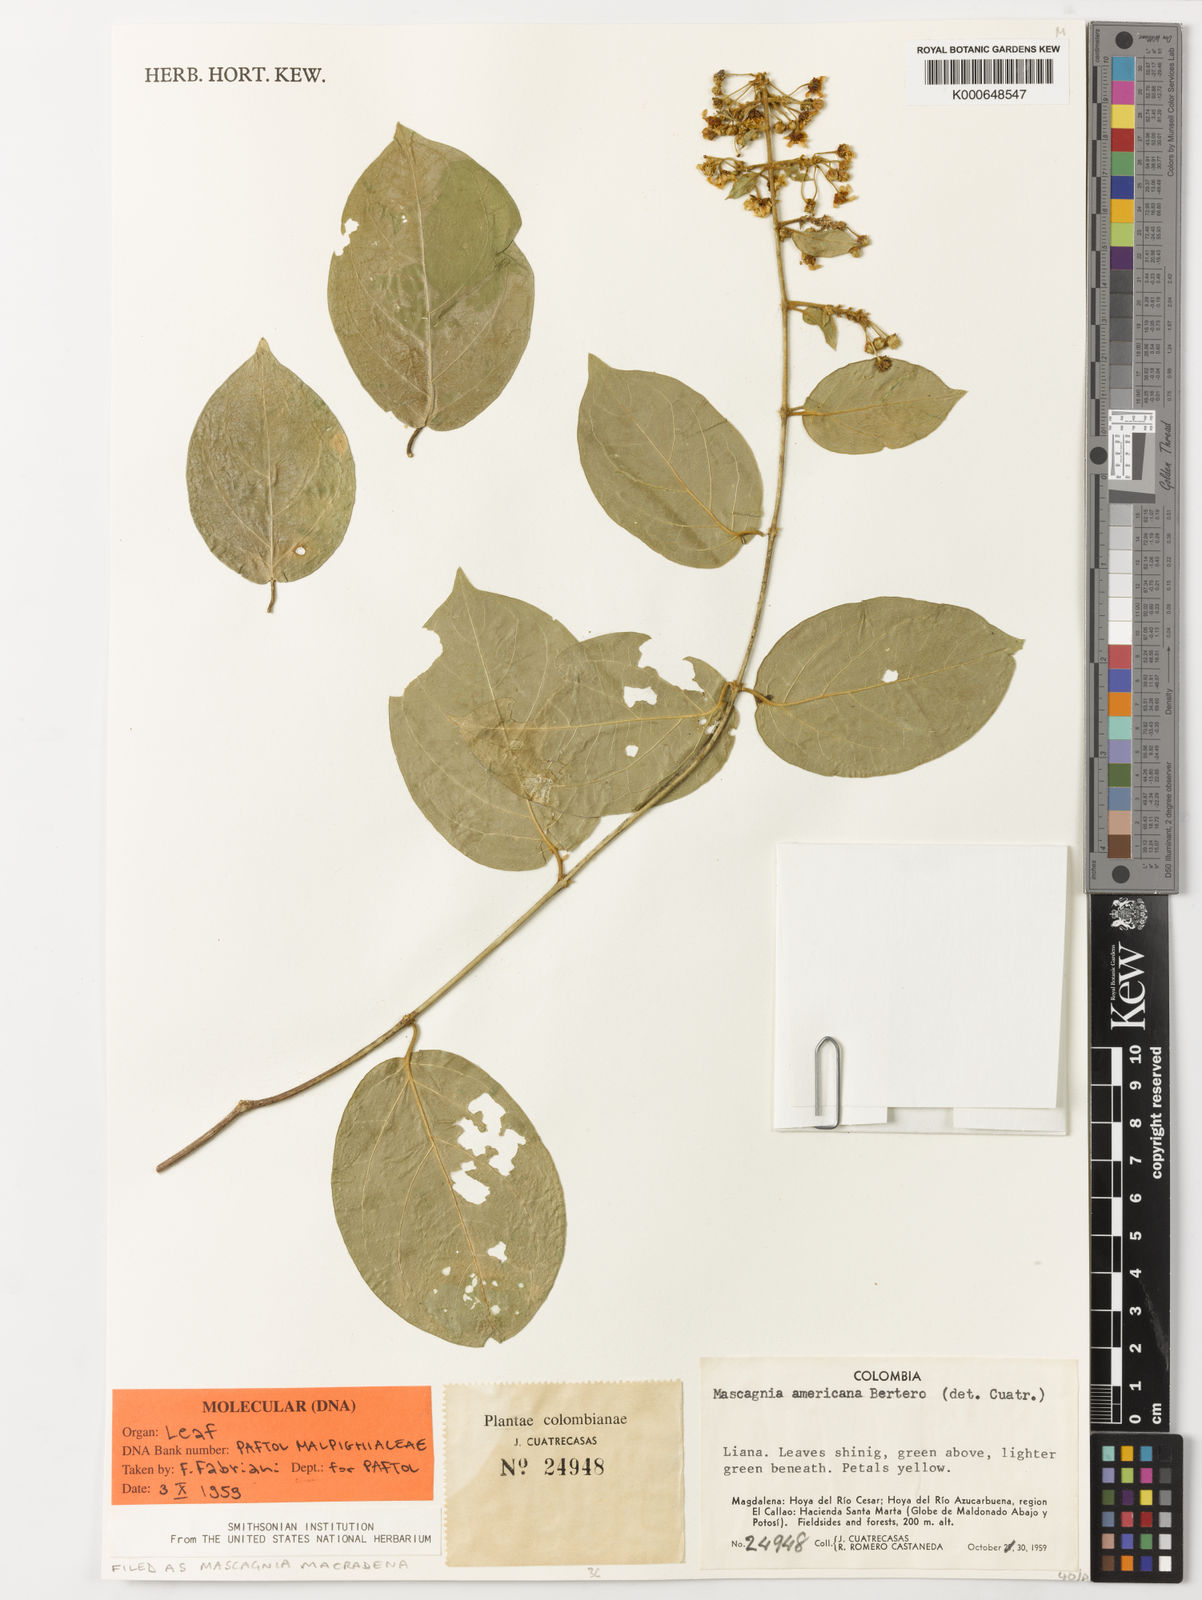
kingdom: Plantae
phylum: Tracheophyta
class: Magnoliopsida
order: Malpighiales
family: Malpighiaceae
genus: Mascagnia
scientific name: Mascagnia macradena
